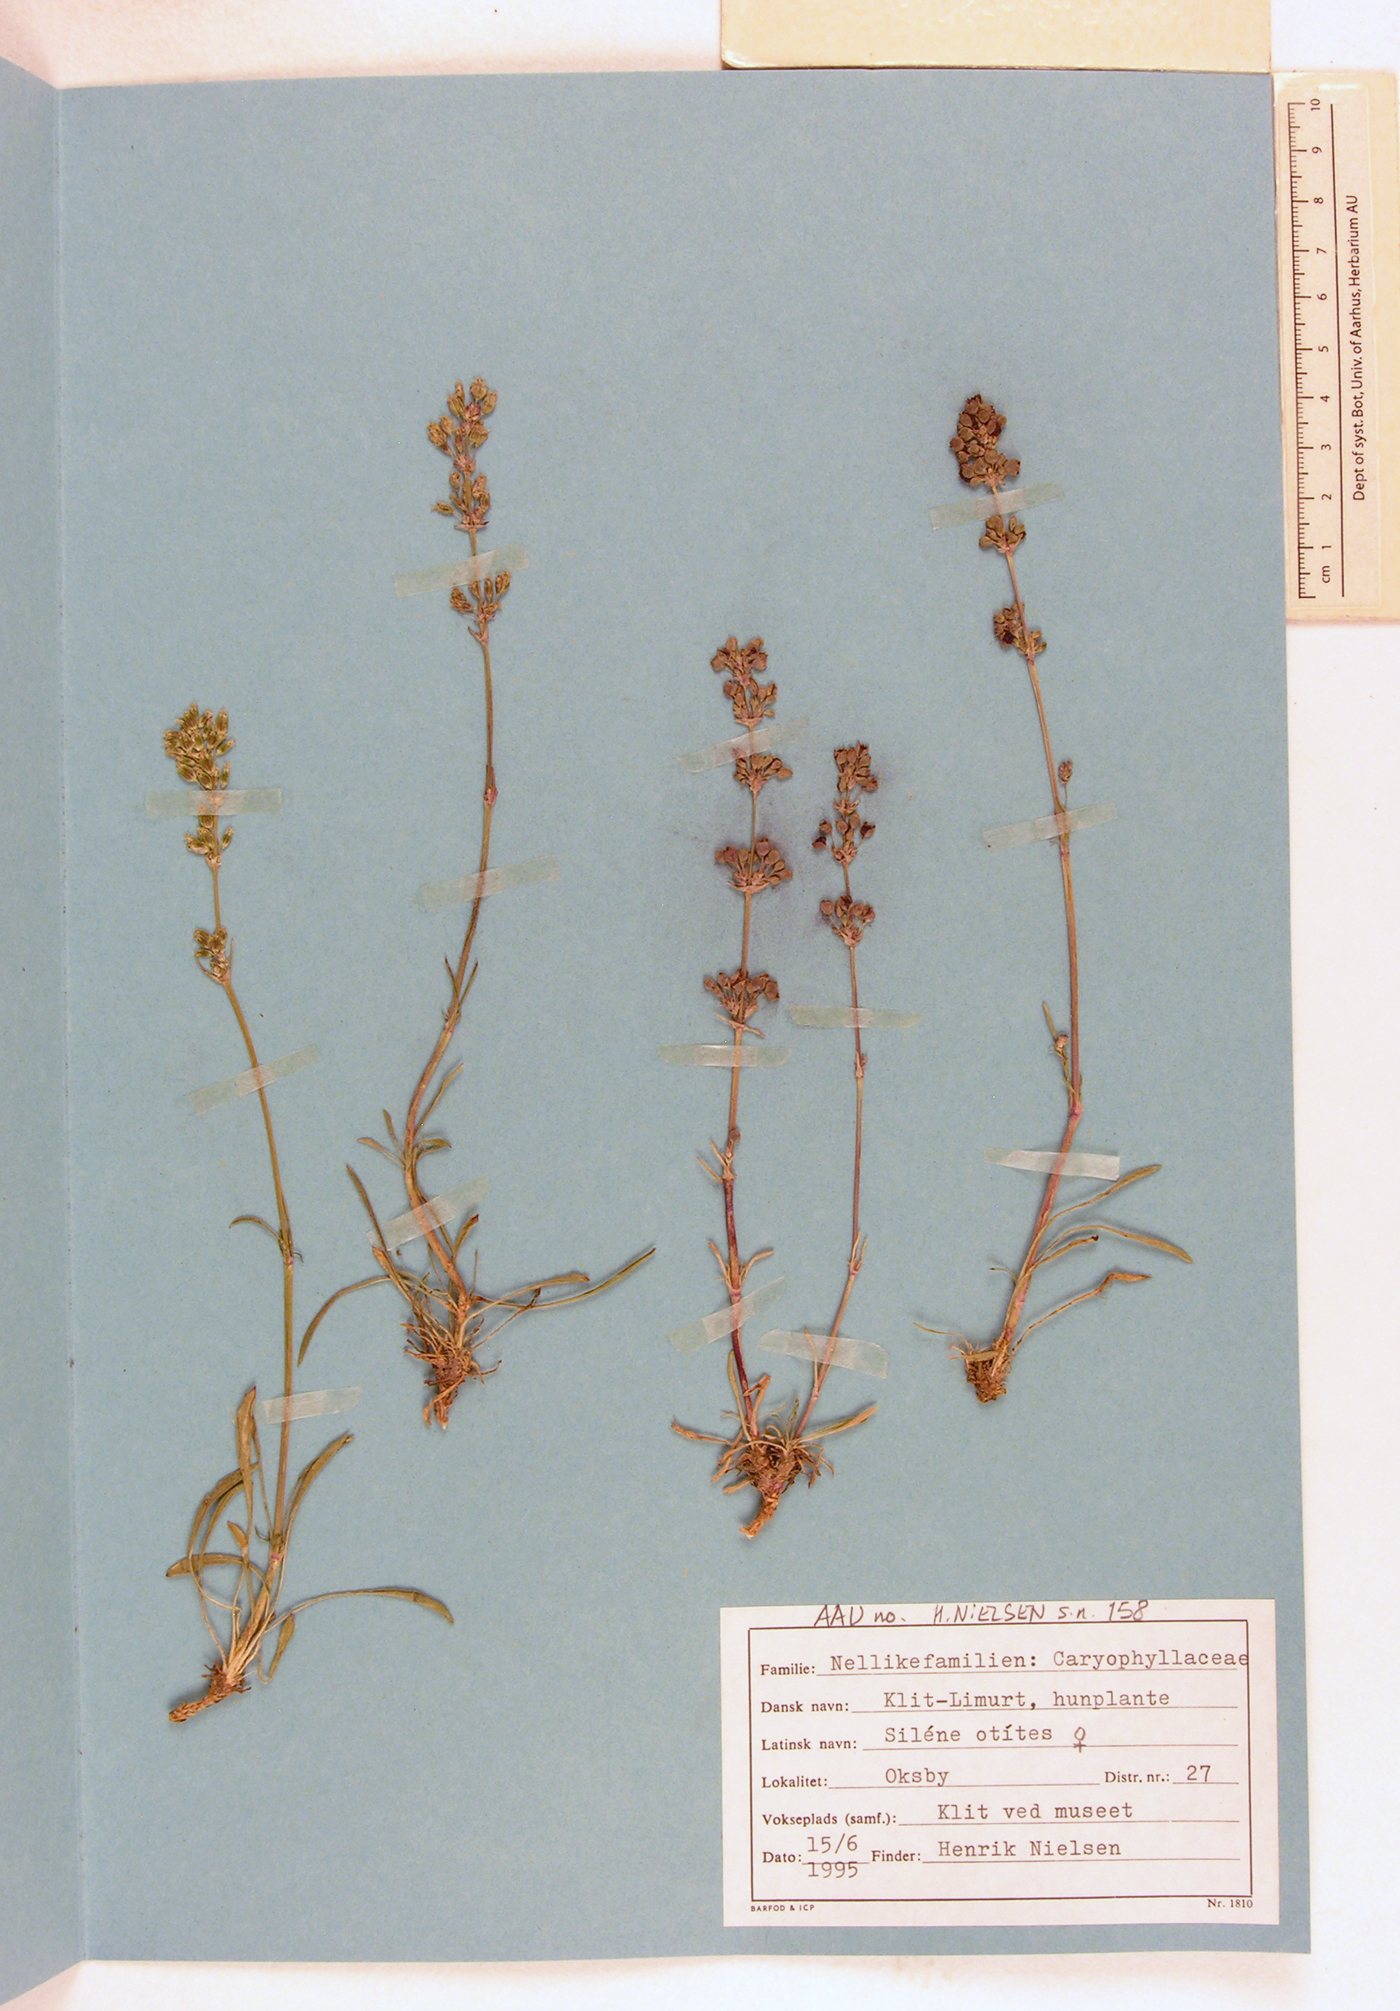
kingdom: Plantae
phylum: Tracheophyta
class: Magnoliopsida
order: Caryophyllales
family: Caryophyllaceae
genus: Silene
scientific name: Silene otites
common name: Spanish catchfly
